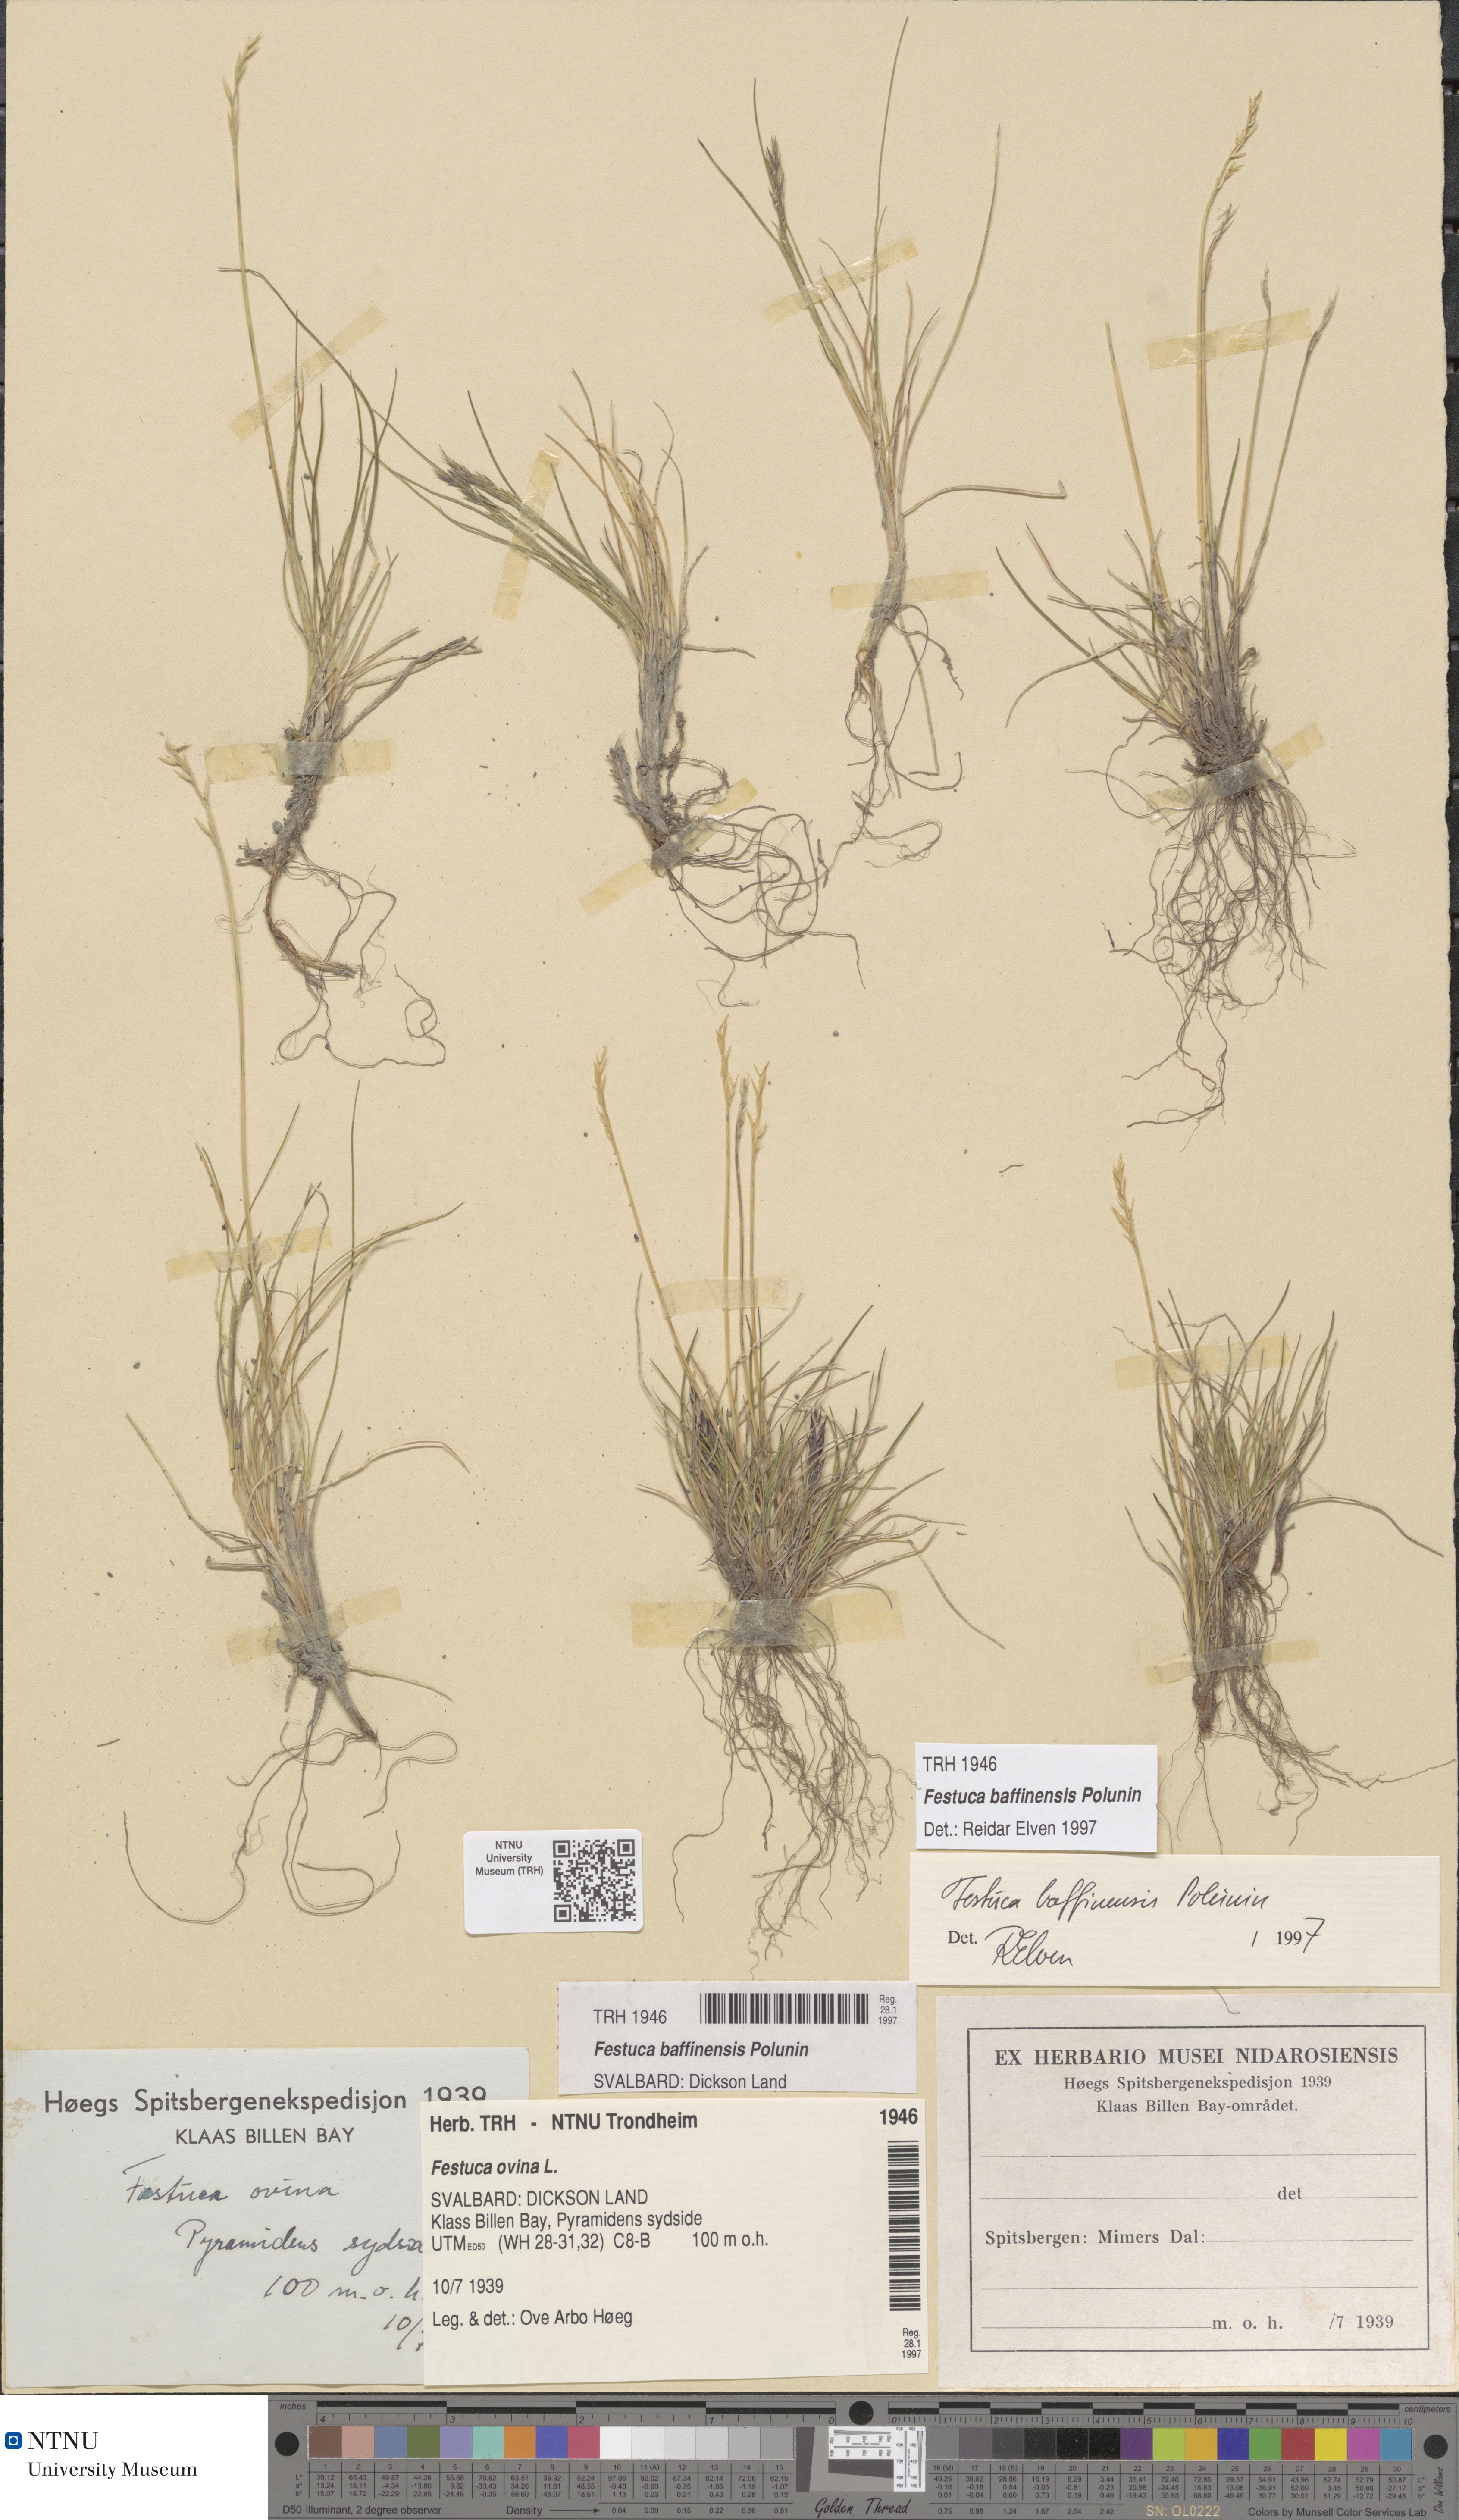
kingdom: Plantae
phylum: Tracheophyta
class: Liliopsida
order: Poales
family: Poaceae
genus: Festuca
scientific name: Festuca baffinensis
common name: Baffin island fescue
